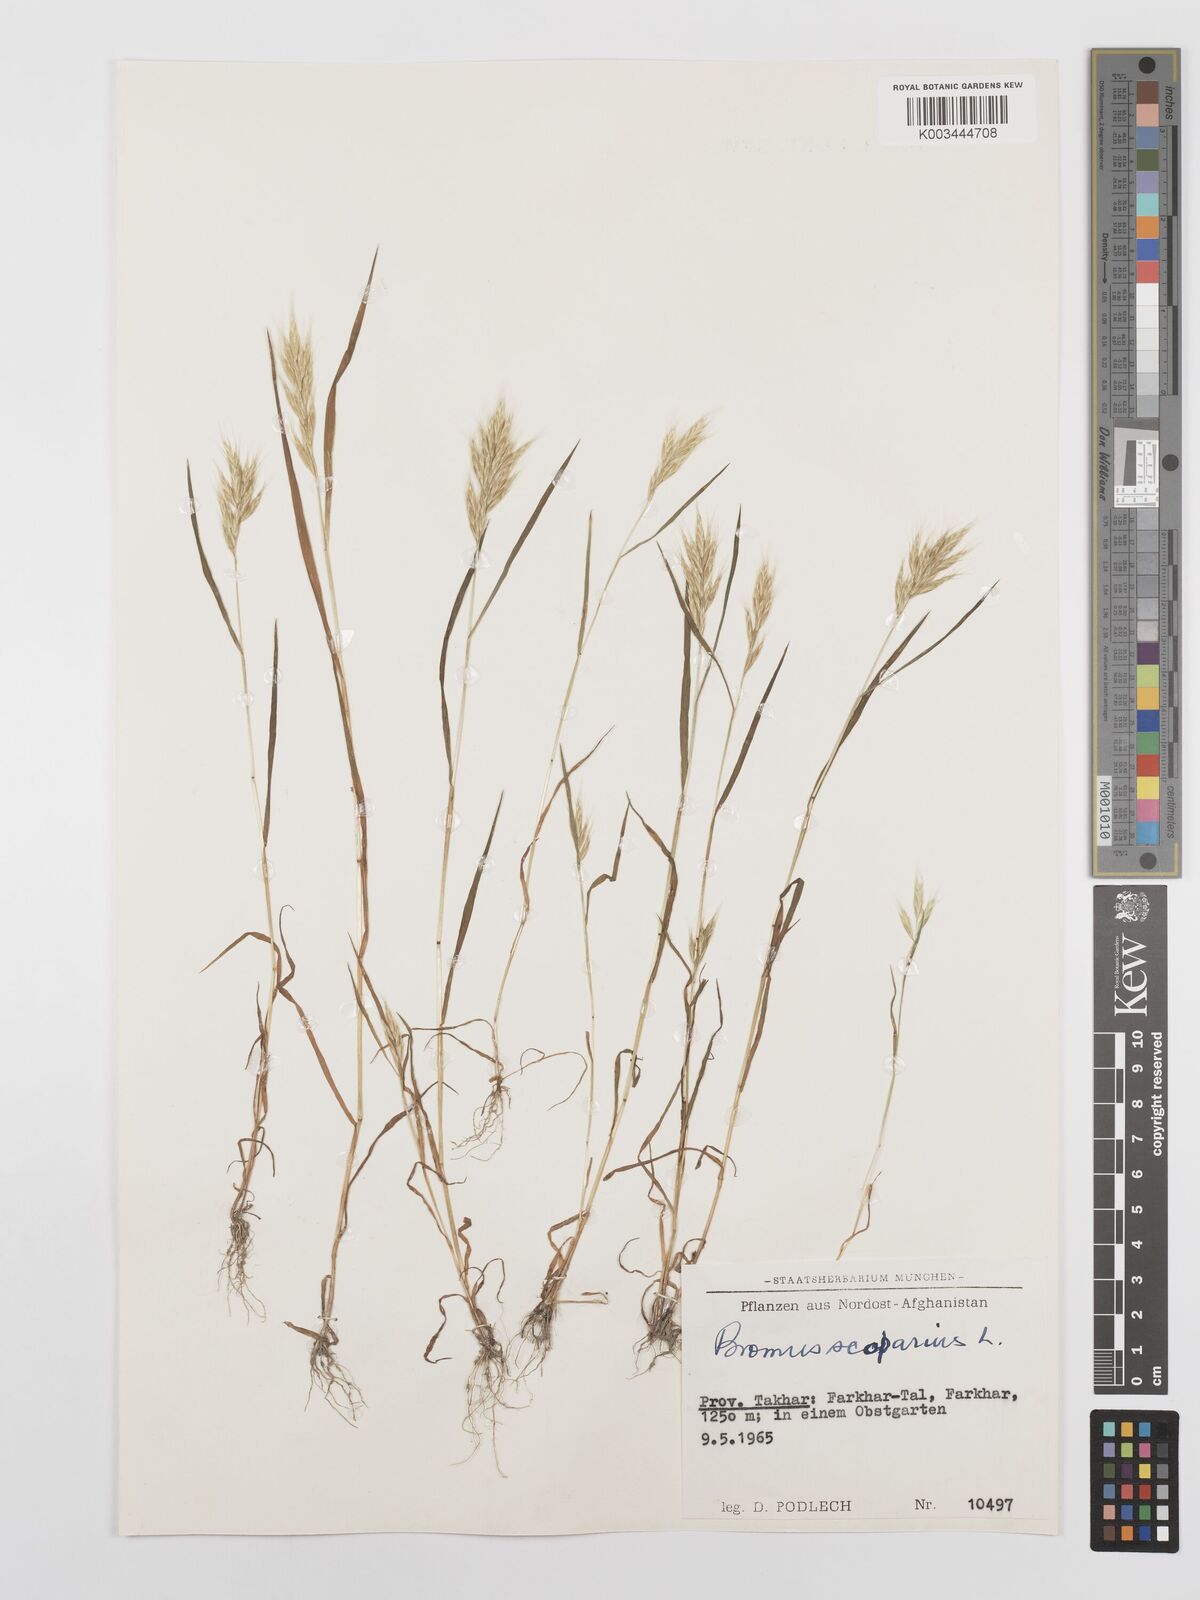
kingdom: Plantae
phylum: Tracheophyta
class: Liliopsida
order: Poales
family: Poaceae
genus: Bromus
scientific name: Bromus scoparius
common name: Broom brome
